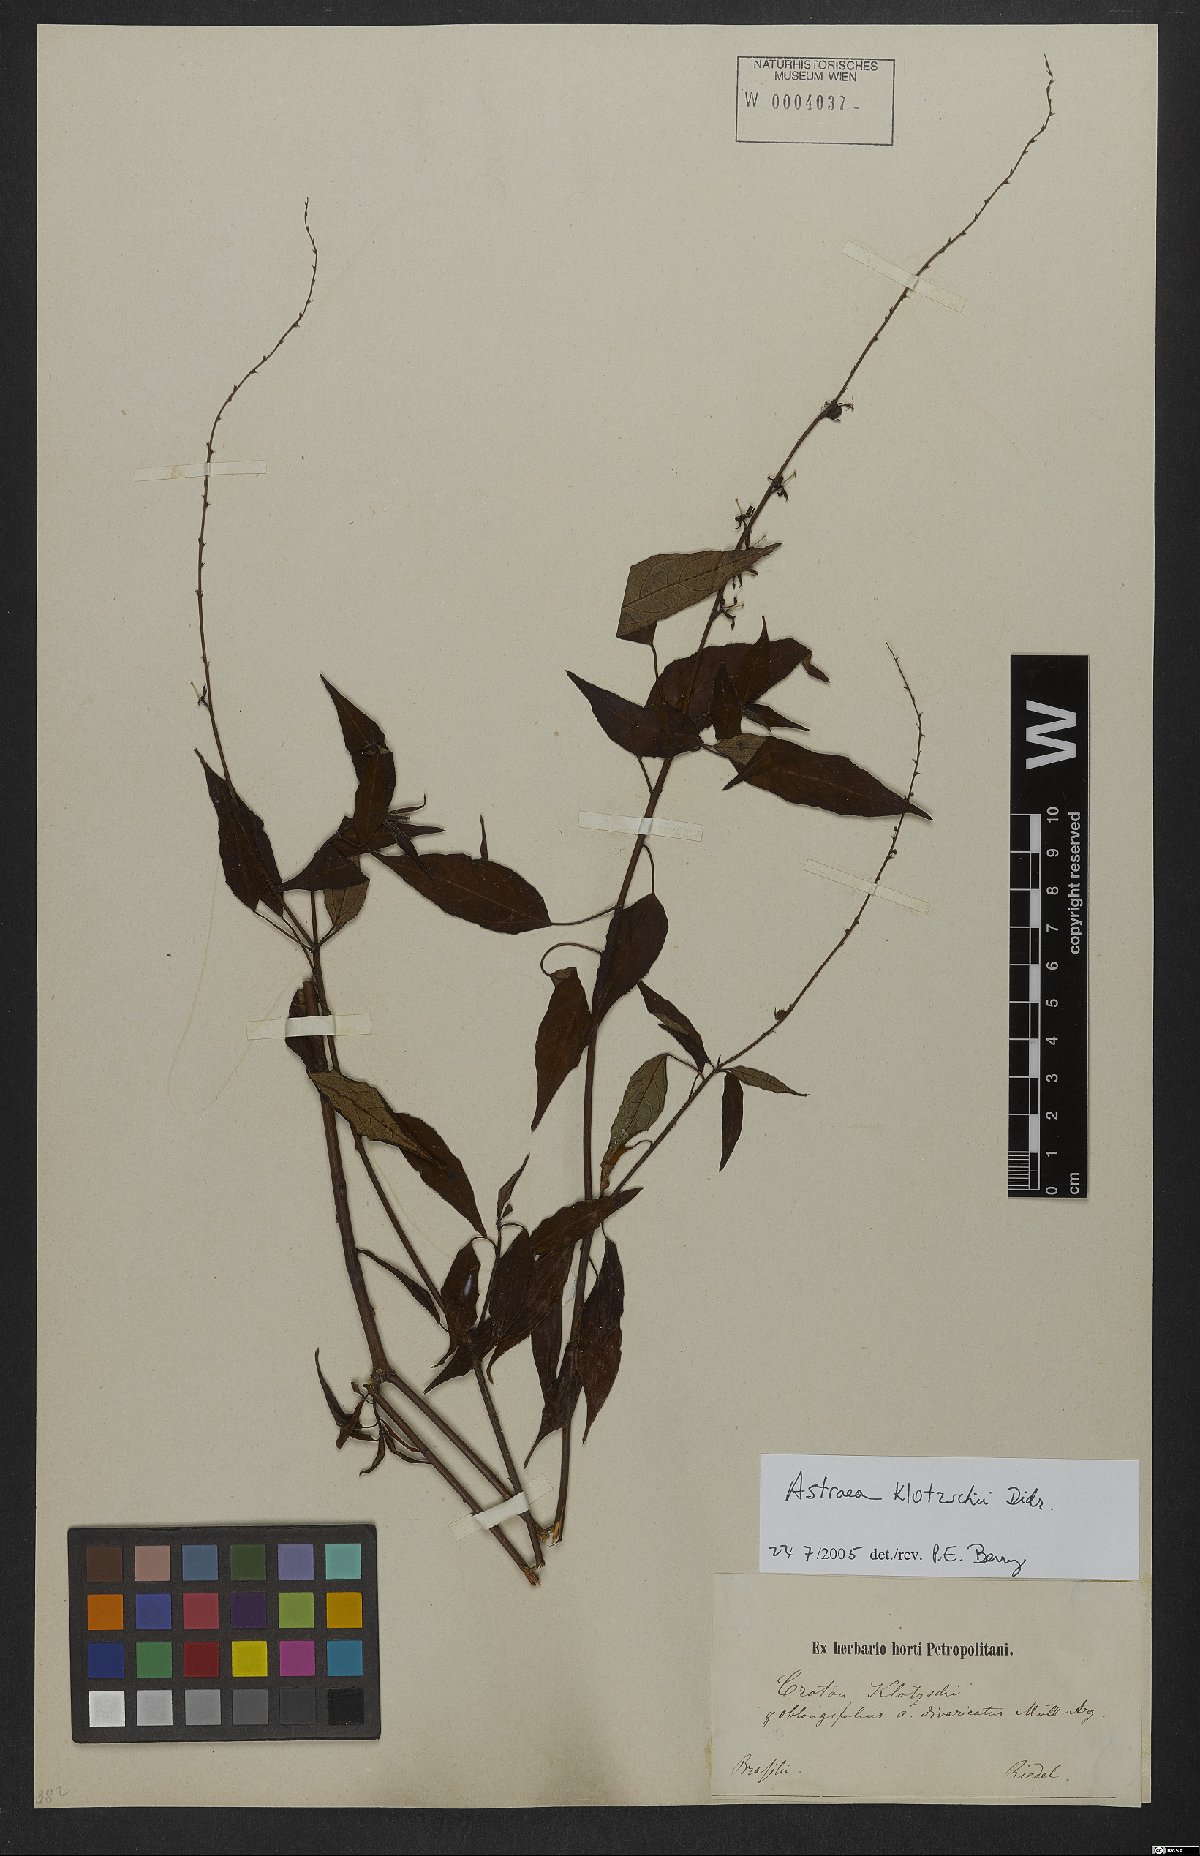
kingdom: Plantae
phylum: Tracheophyta
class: Magnoliopsida
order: Malpighiales
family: Euphorbiaceae
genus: Astraea
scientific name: Astraea macroura
